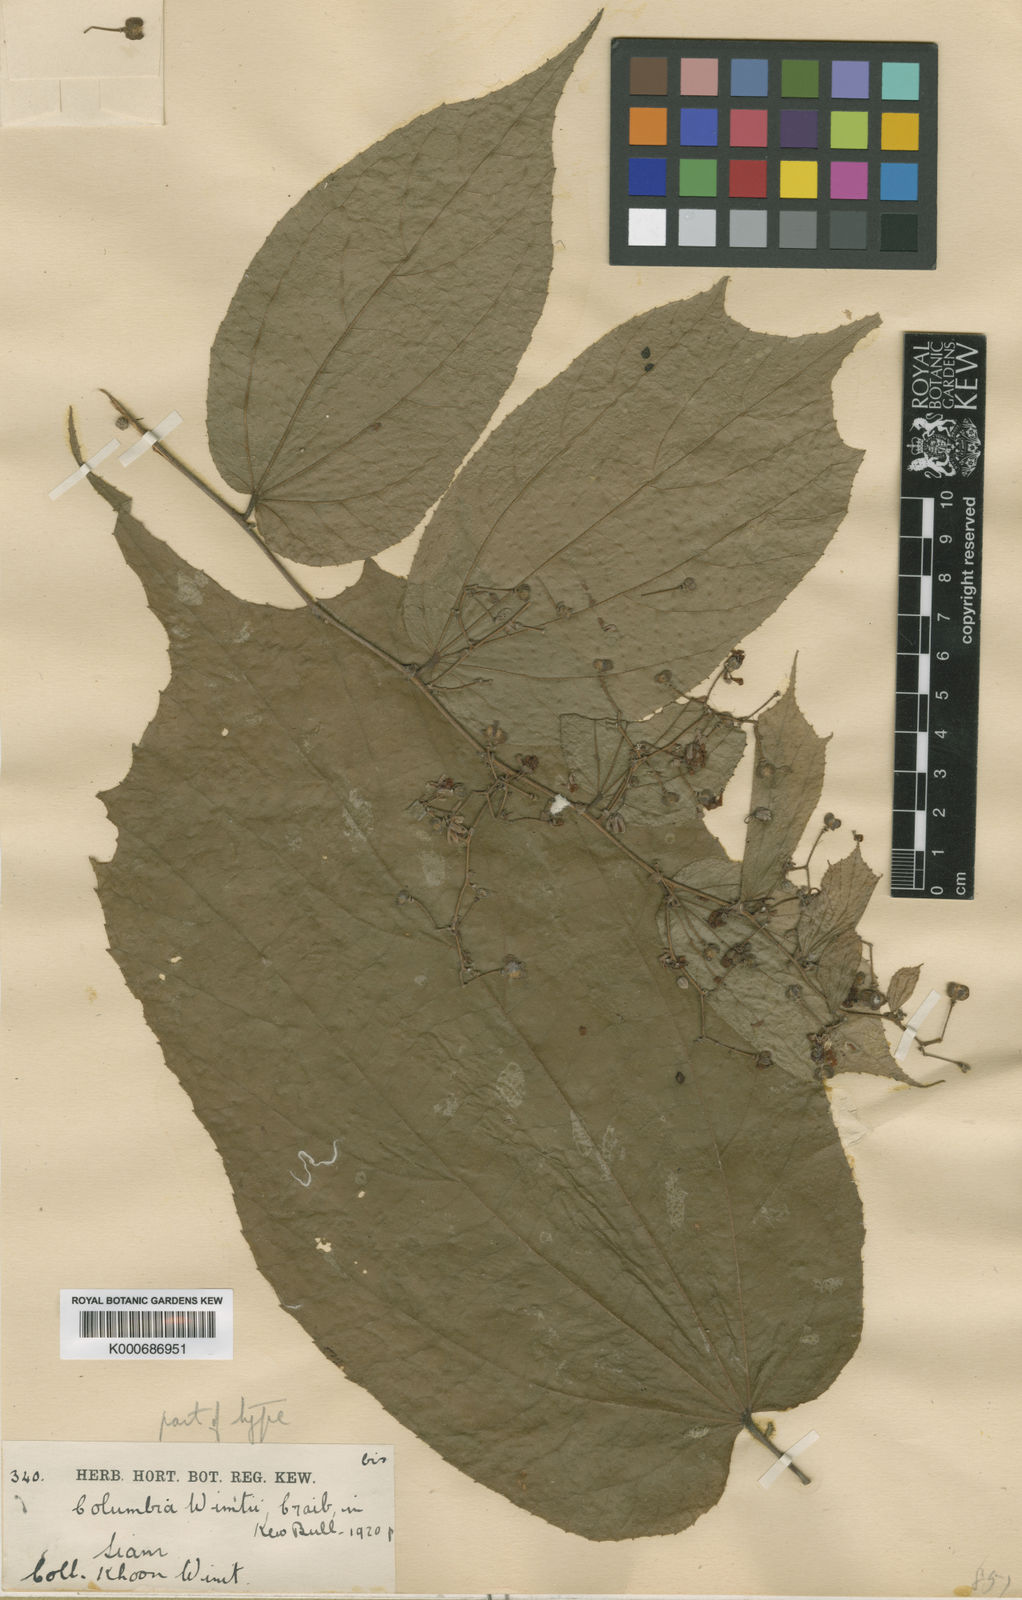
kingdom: Plantae
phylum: Tracheophyta
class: Magnoliopsida
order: Malvales
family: Malvaceae
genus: Colona
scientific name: Colona winitii
